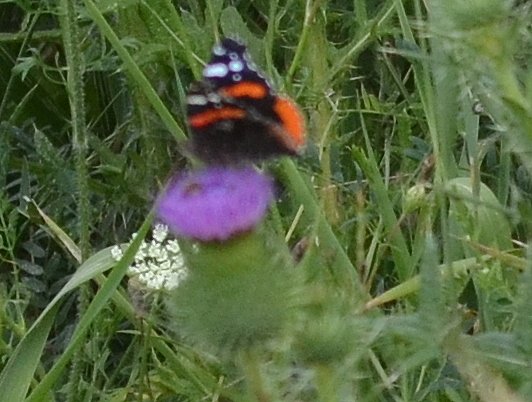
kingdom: Animalia
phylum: Arthropoda
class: Insecta
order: Lepidoptera
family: Nymphalidae
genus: Vanessa
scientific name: Vanessa atalanta
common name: Red Admiral
